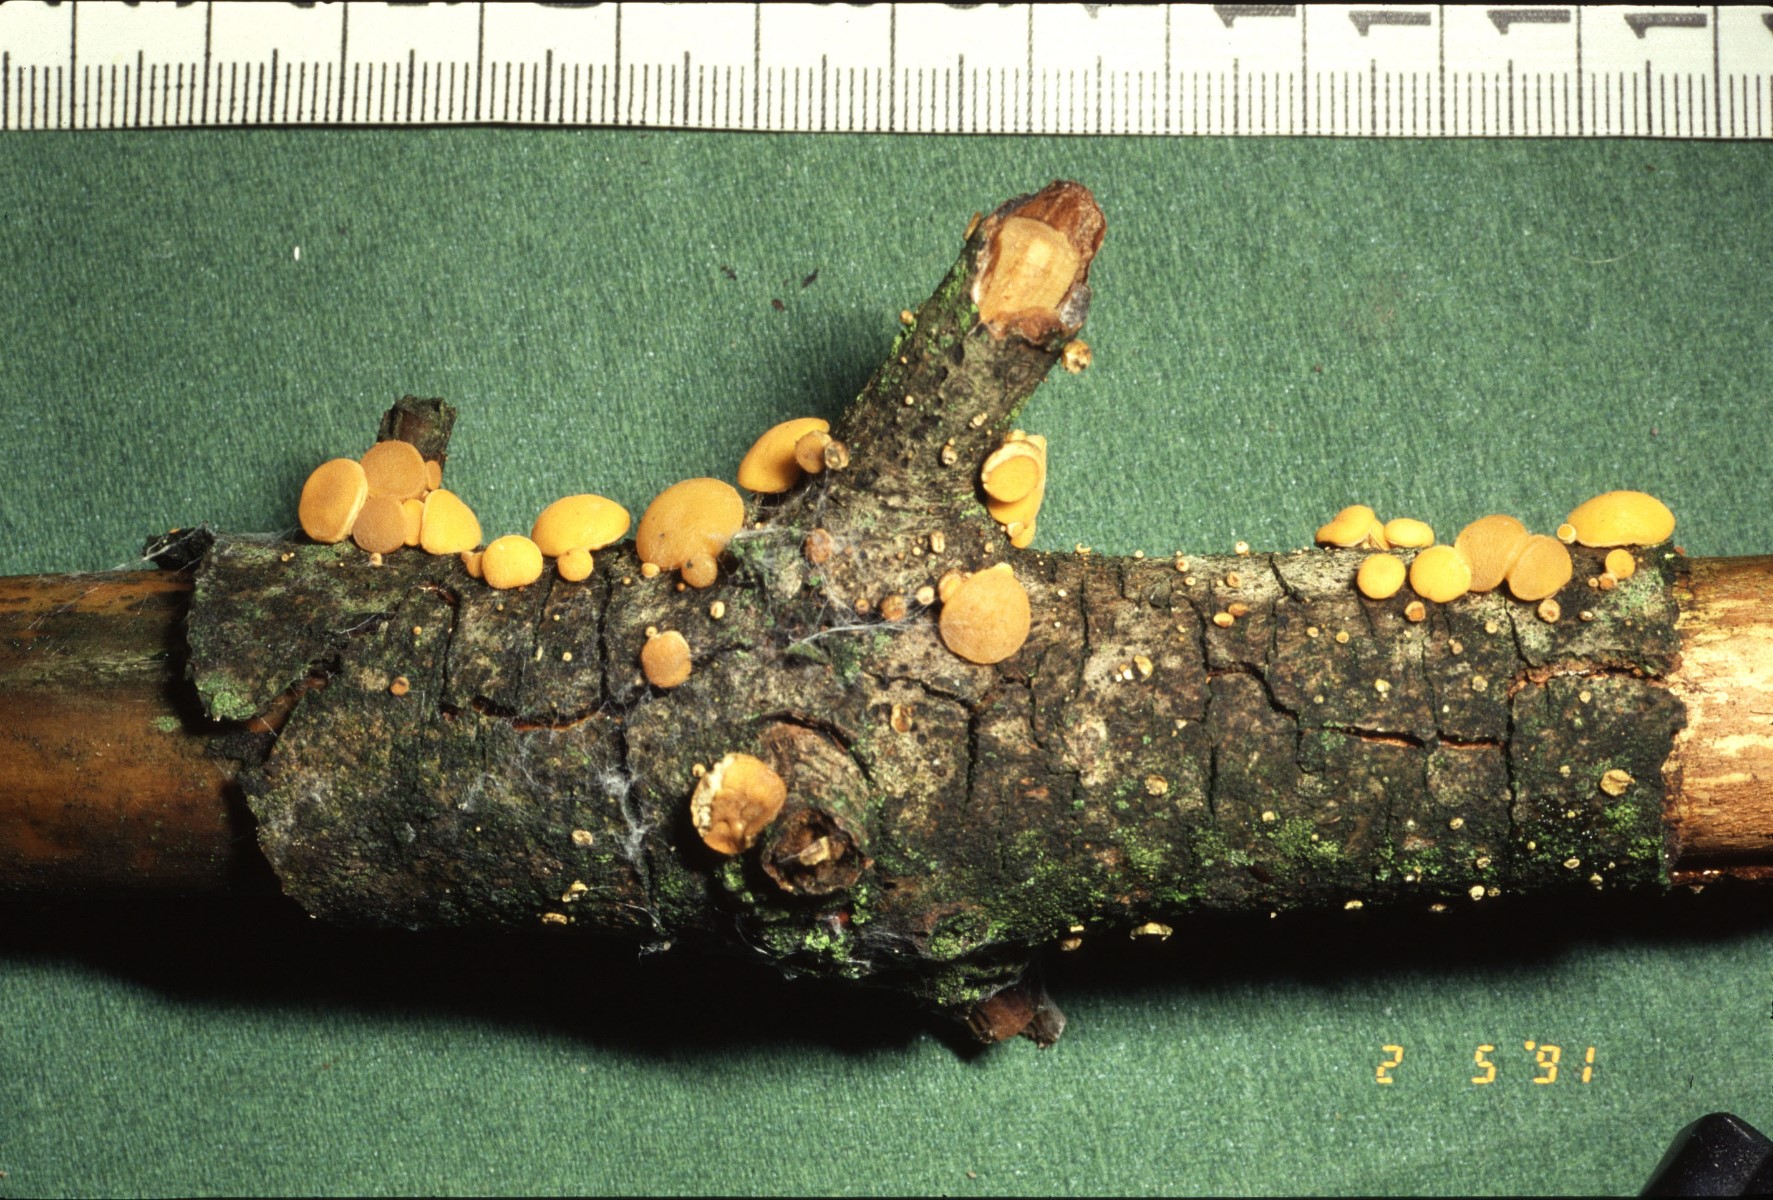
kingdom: Fungi
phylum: Ascomycota
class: Pezizomycetes
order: Pezizales
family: Sarcoscyphaceae
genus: Pithya
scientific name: Pithya vulgaris
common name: stor dukatbæger
